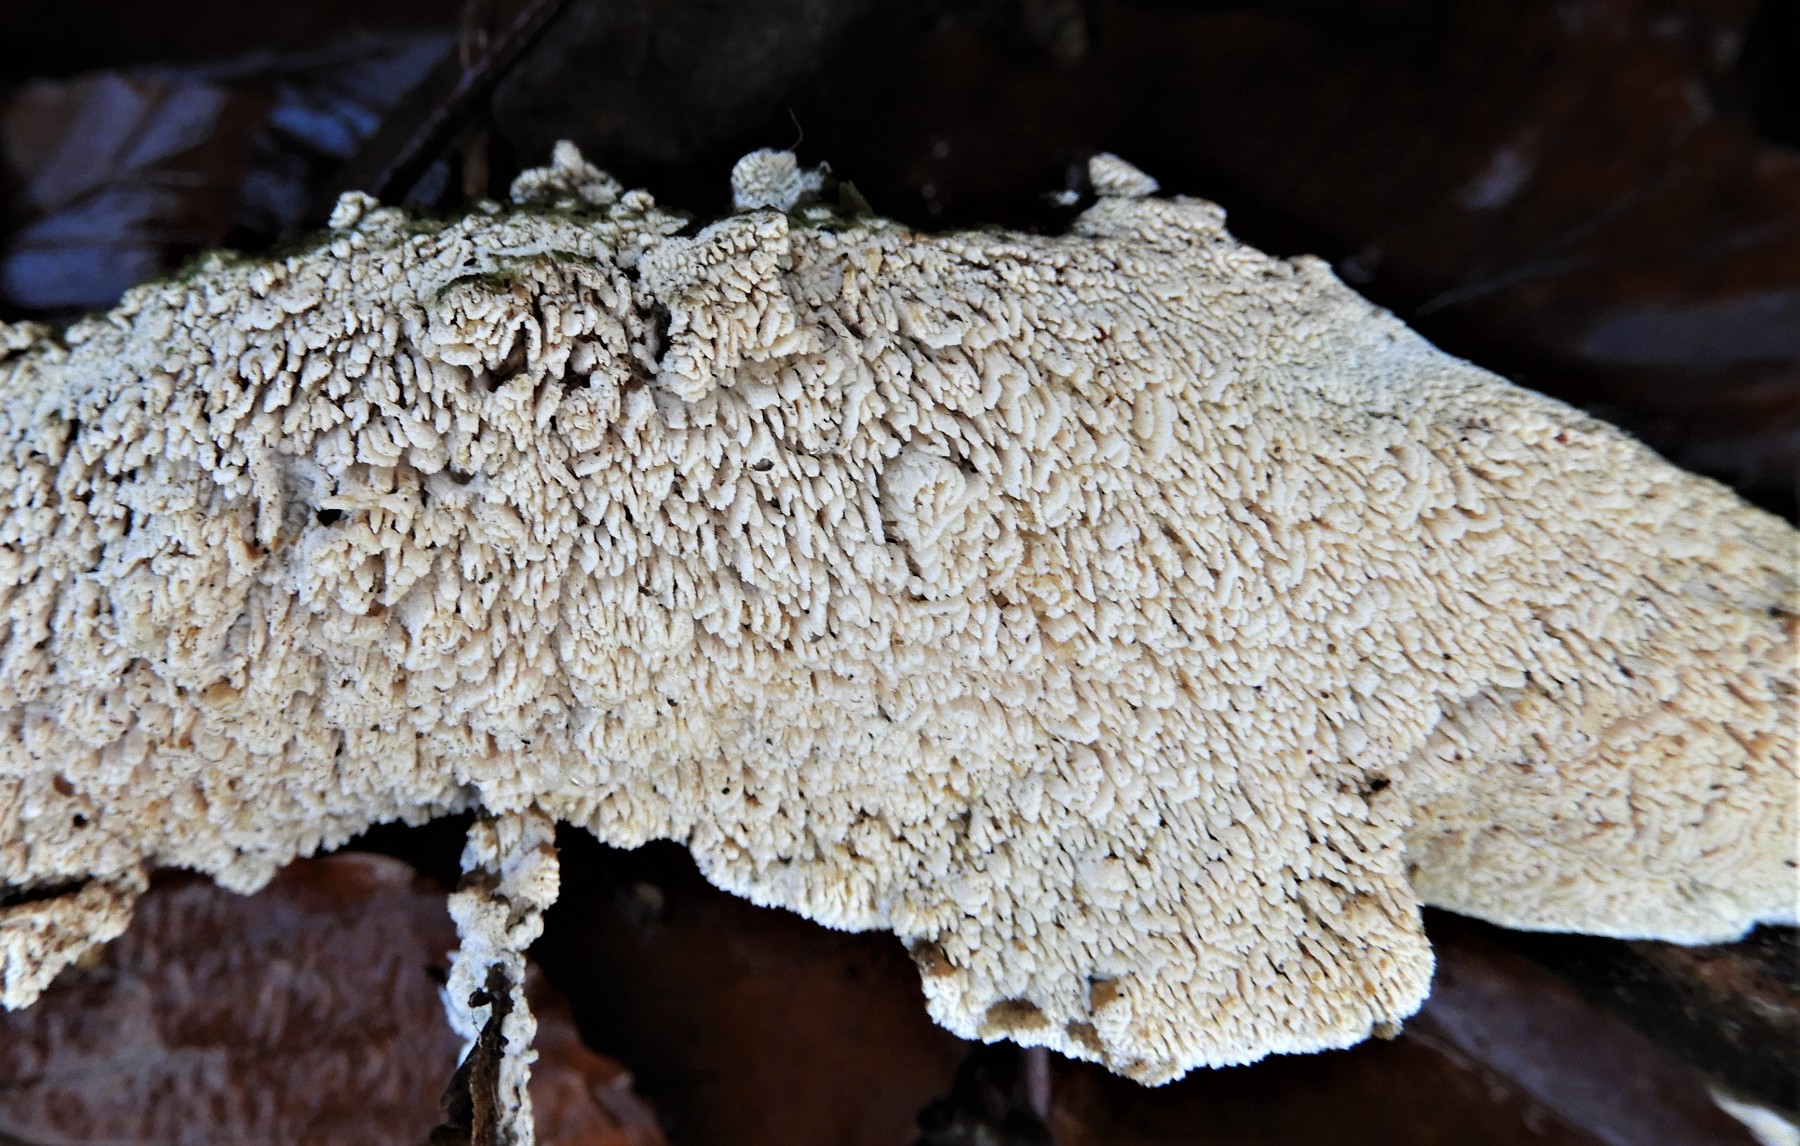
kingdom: Fungi
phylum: Basidiomycota
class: Agaricomycetes
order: Hymenochaetales
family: Schizoporaceae
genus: Xylodon
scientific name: Xylodon radula
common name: grovtandet kalkskind
